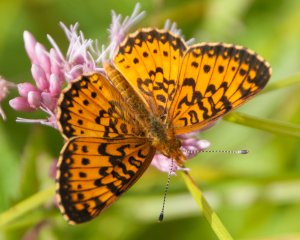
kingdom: Animalia
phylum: Arthropoda
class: Insecta
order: Lepidoptera
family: Nymphalidae
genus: Boloria
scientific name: Boloria selene
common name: Silver-bordered Fritillary
